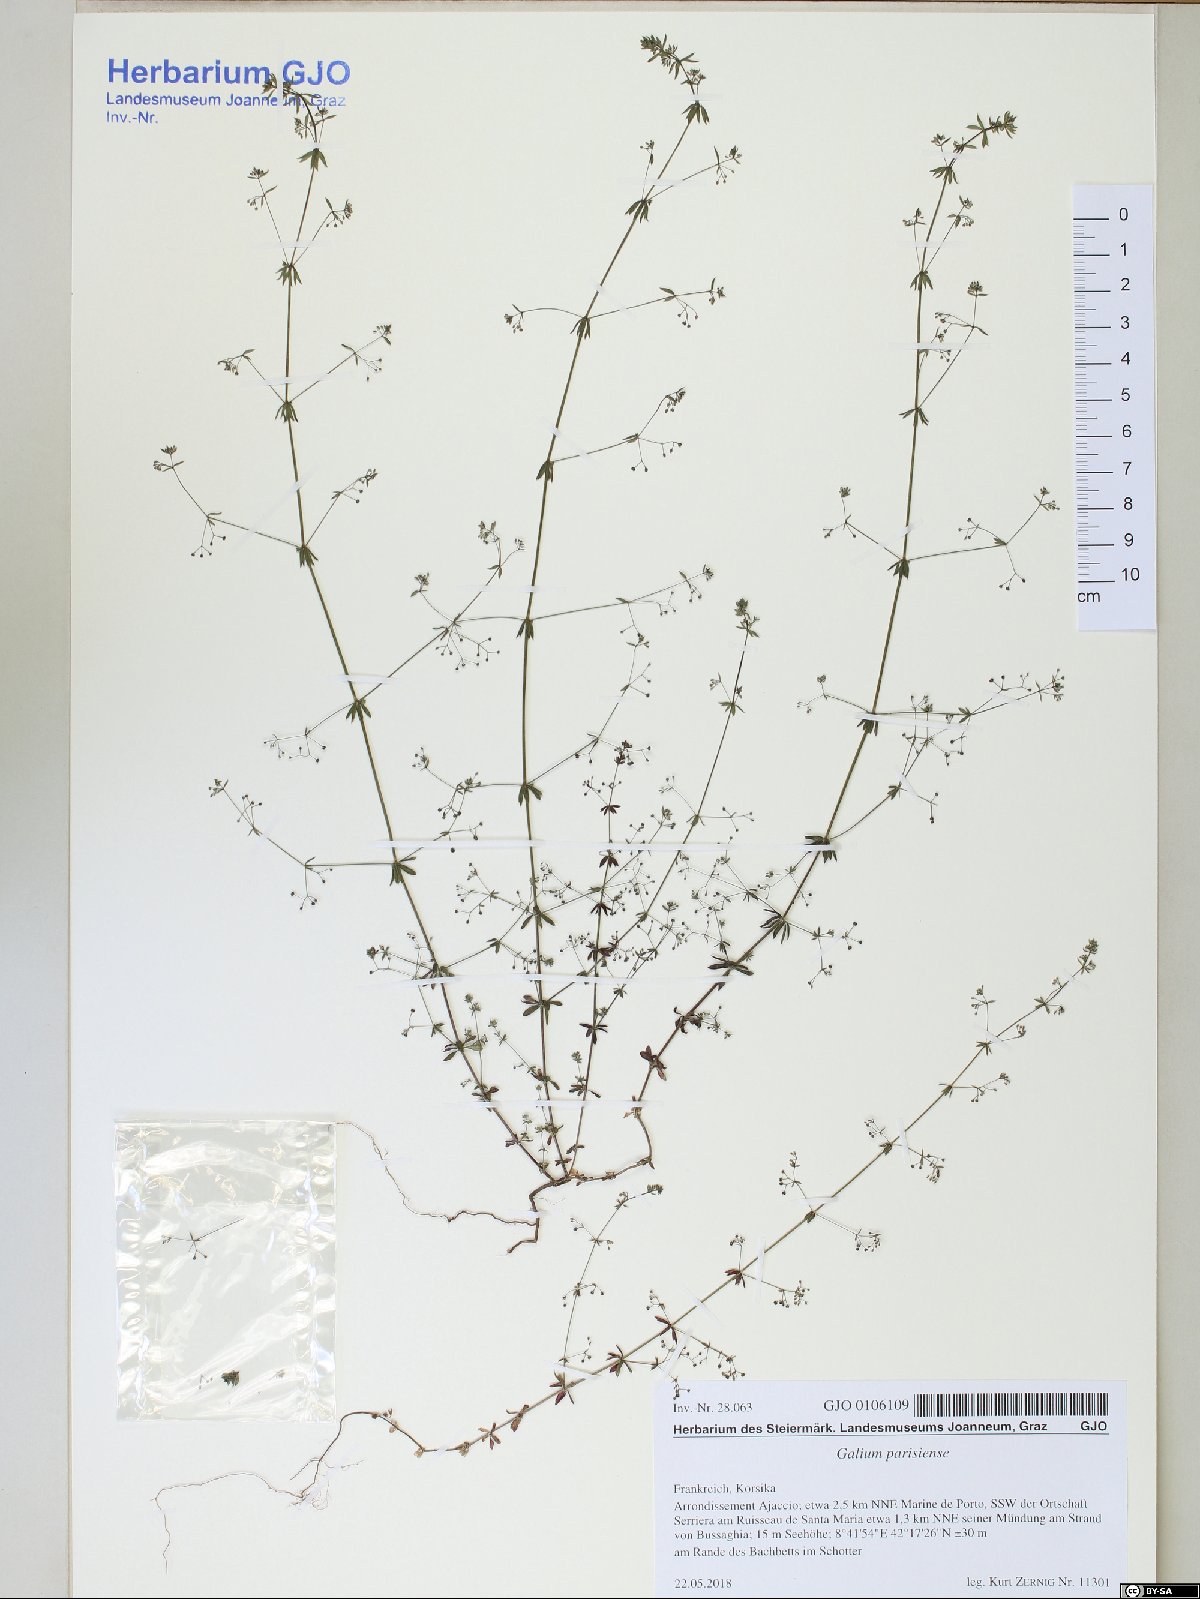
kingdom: Plantae
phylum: Tracheophyta
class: Magnoliopsida
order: Gentianales
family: Rubiaceae
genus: Galium
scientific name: Galium parisiense
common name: Wall bedstraw
